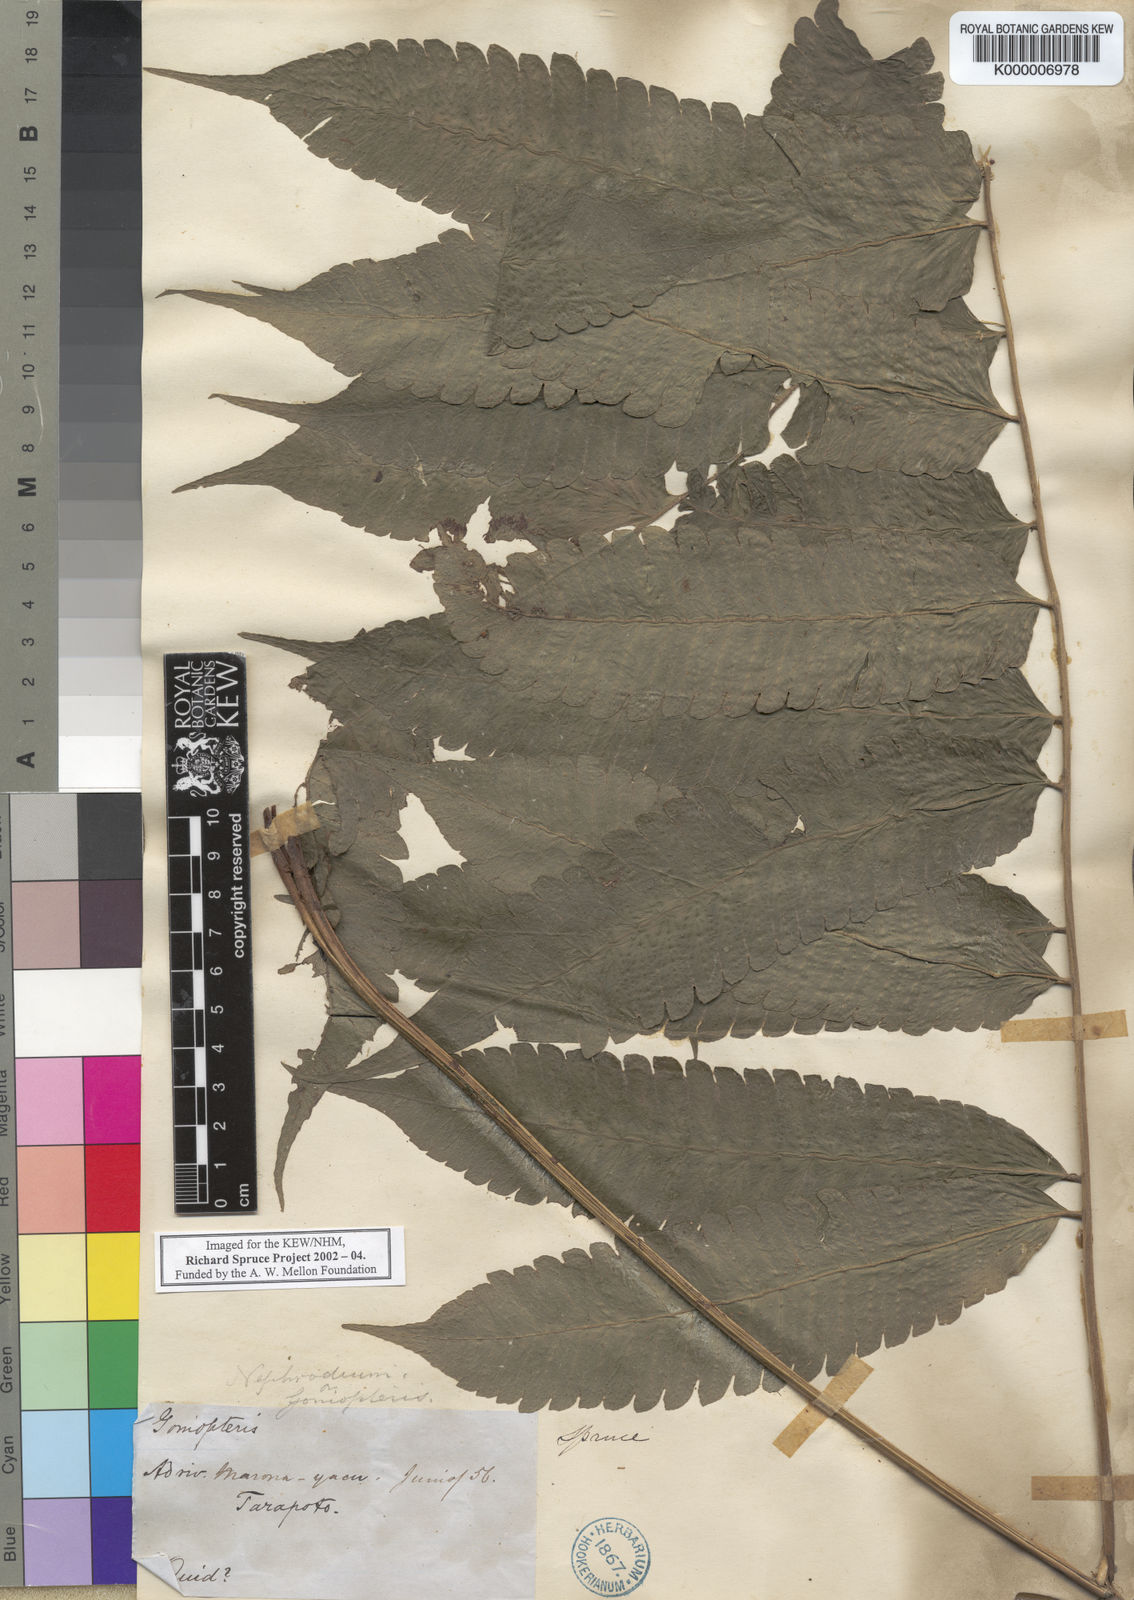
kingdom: Plantae
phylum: Tracheophyta
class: Polypodiopsida
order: Polypodiales
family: Thelypteridaceae
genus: Goniopteris
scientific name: Goniopteris pennata
